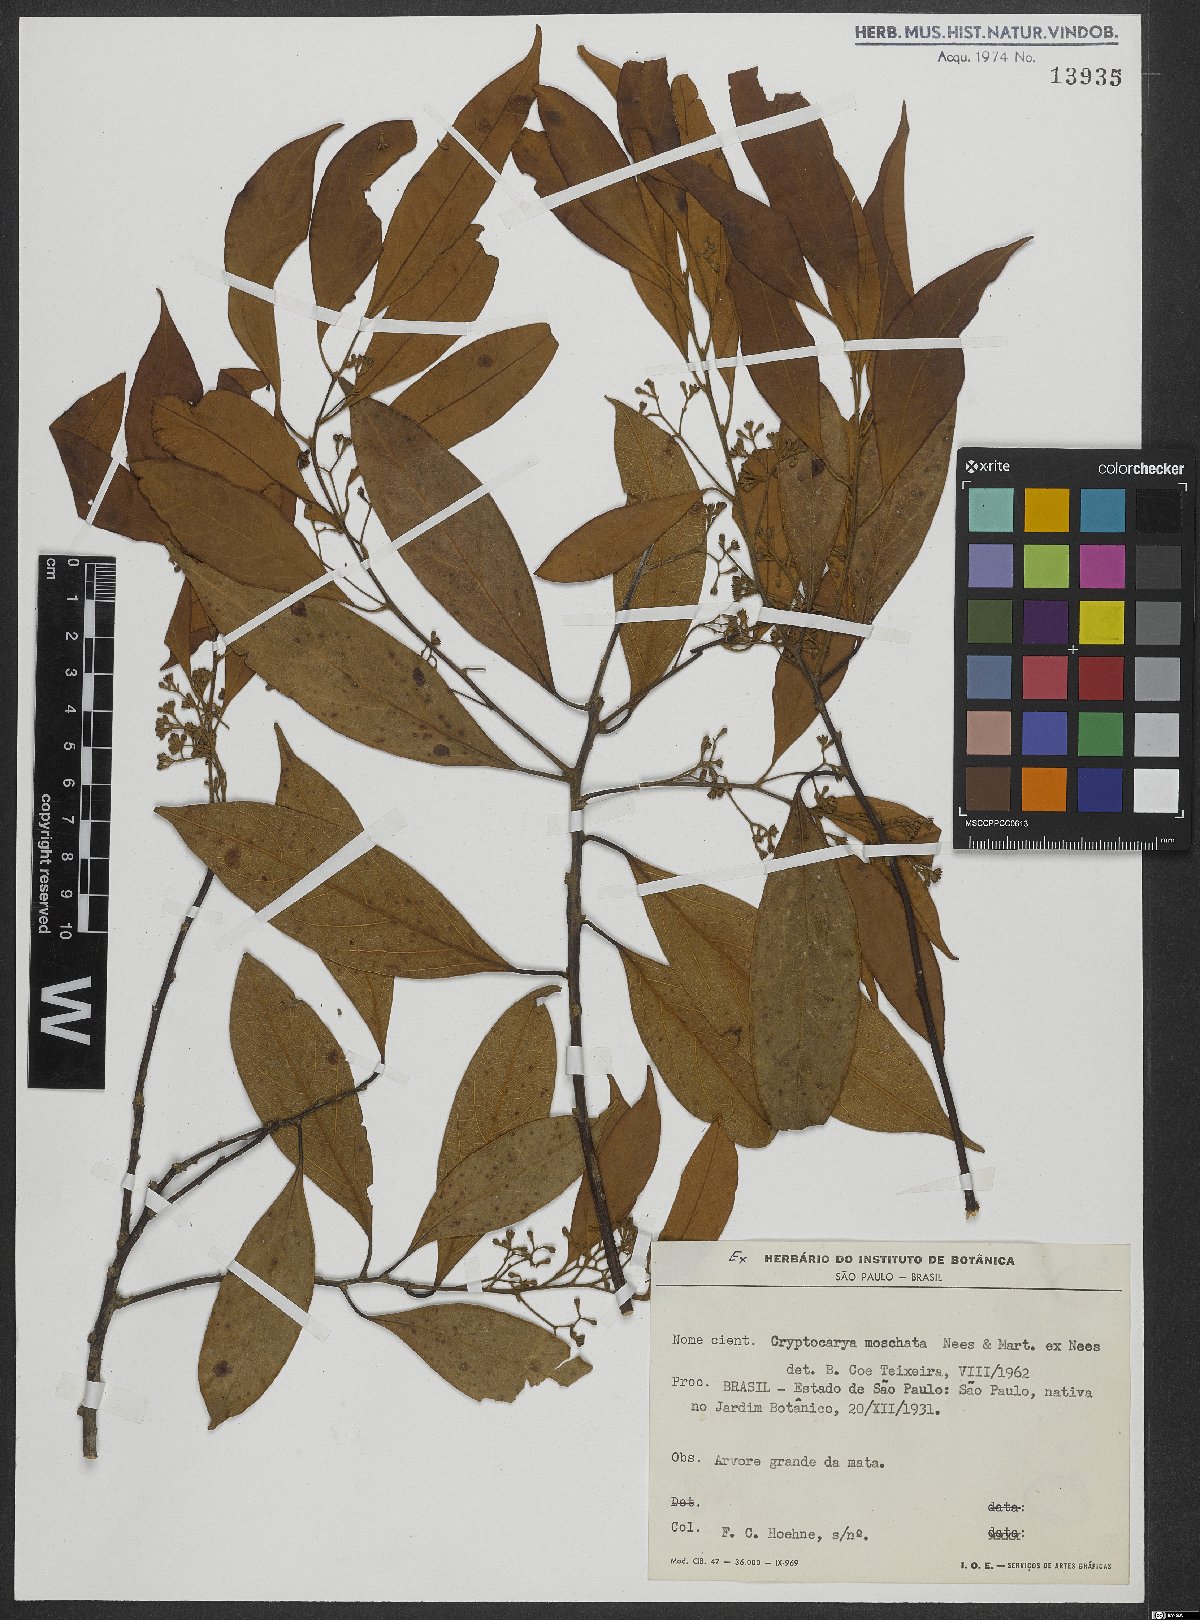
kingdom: Plantae
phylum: Tracheophyta
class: Magnoliopsida
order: Laurales
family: Lauraceae
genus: Cryptocarya
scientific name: Cryptocarya moschata
